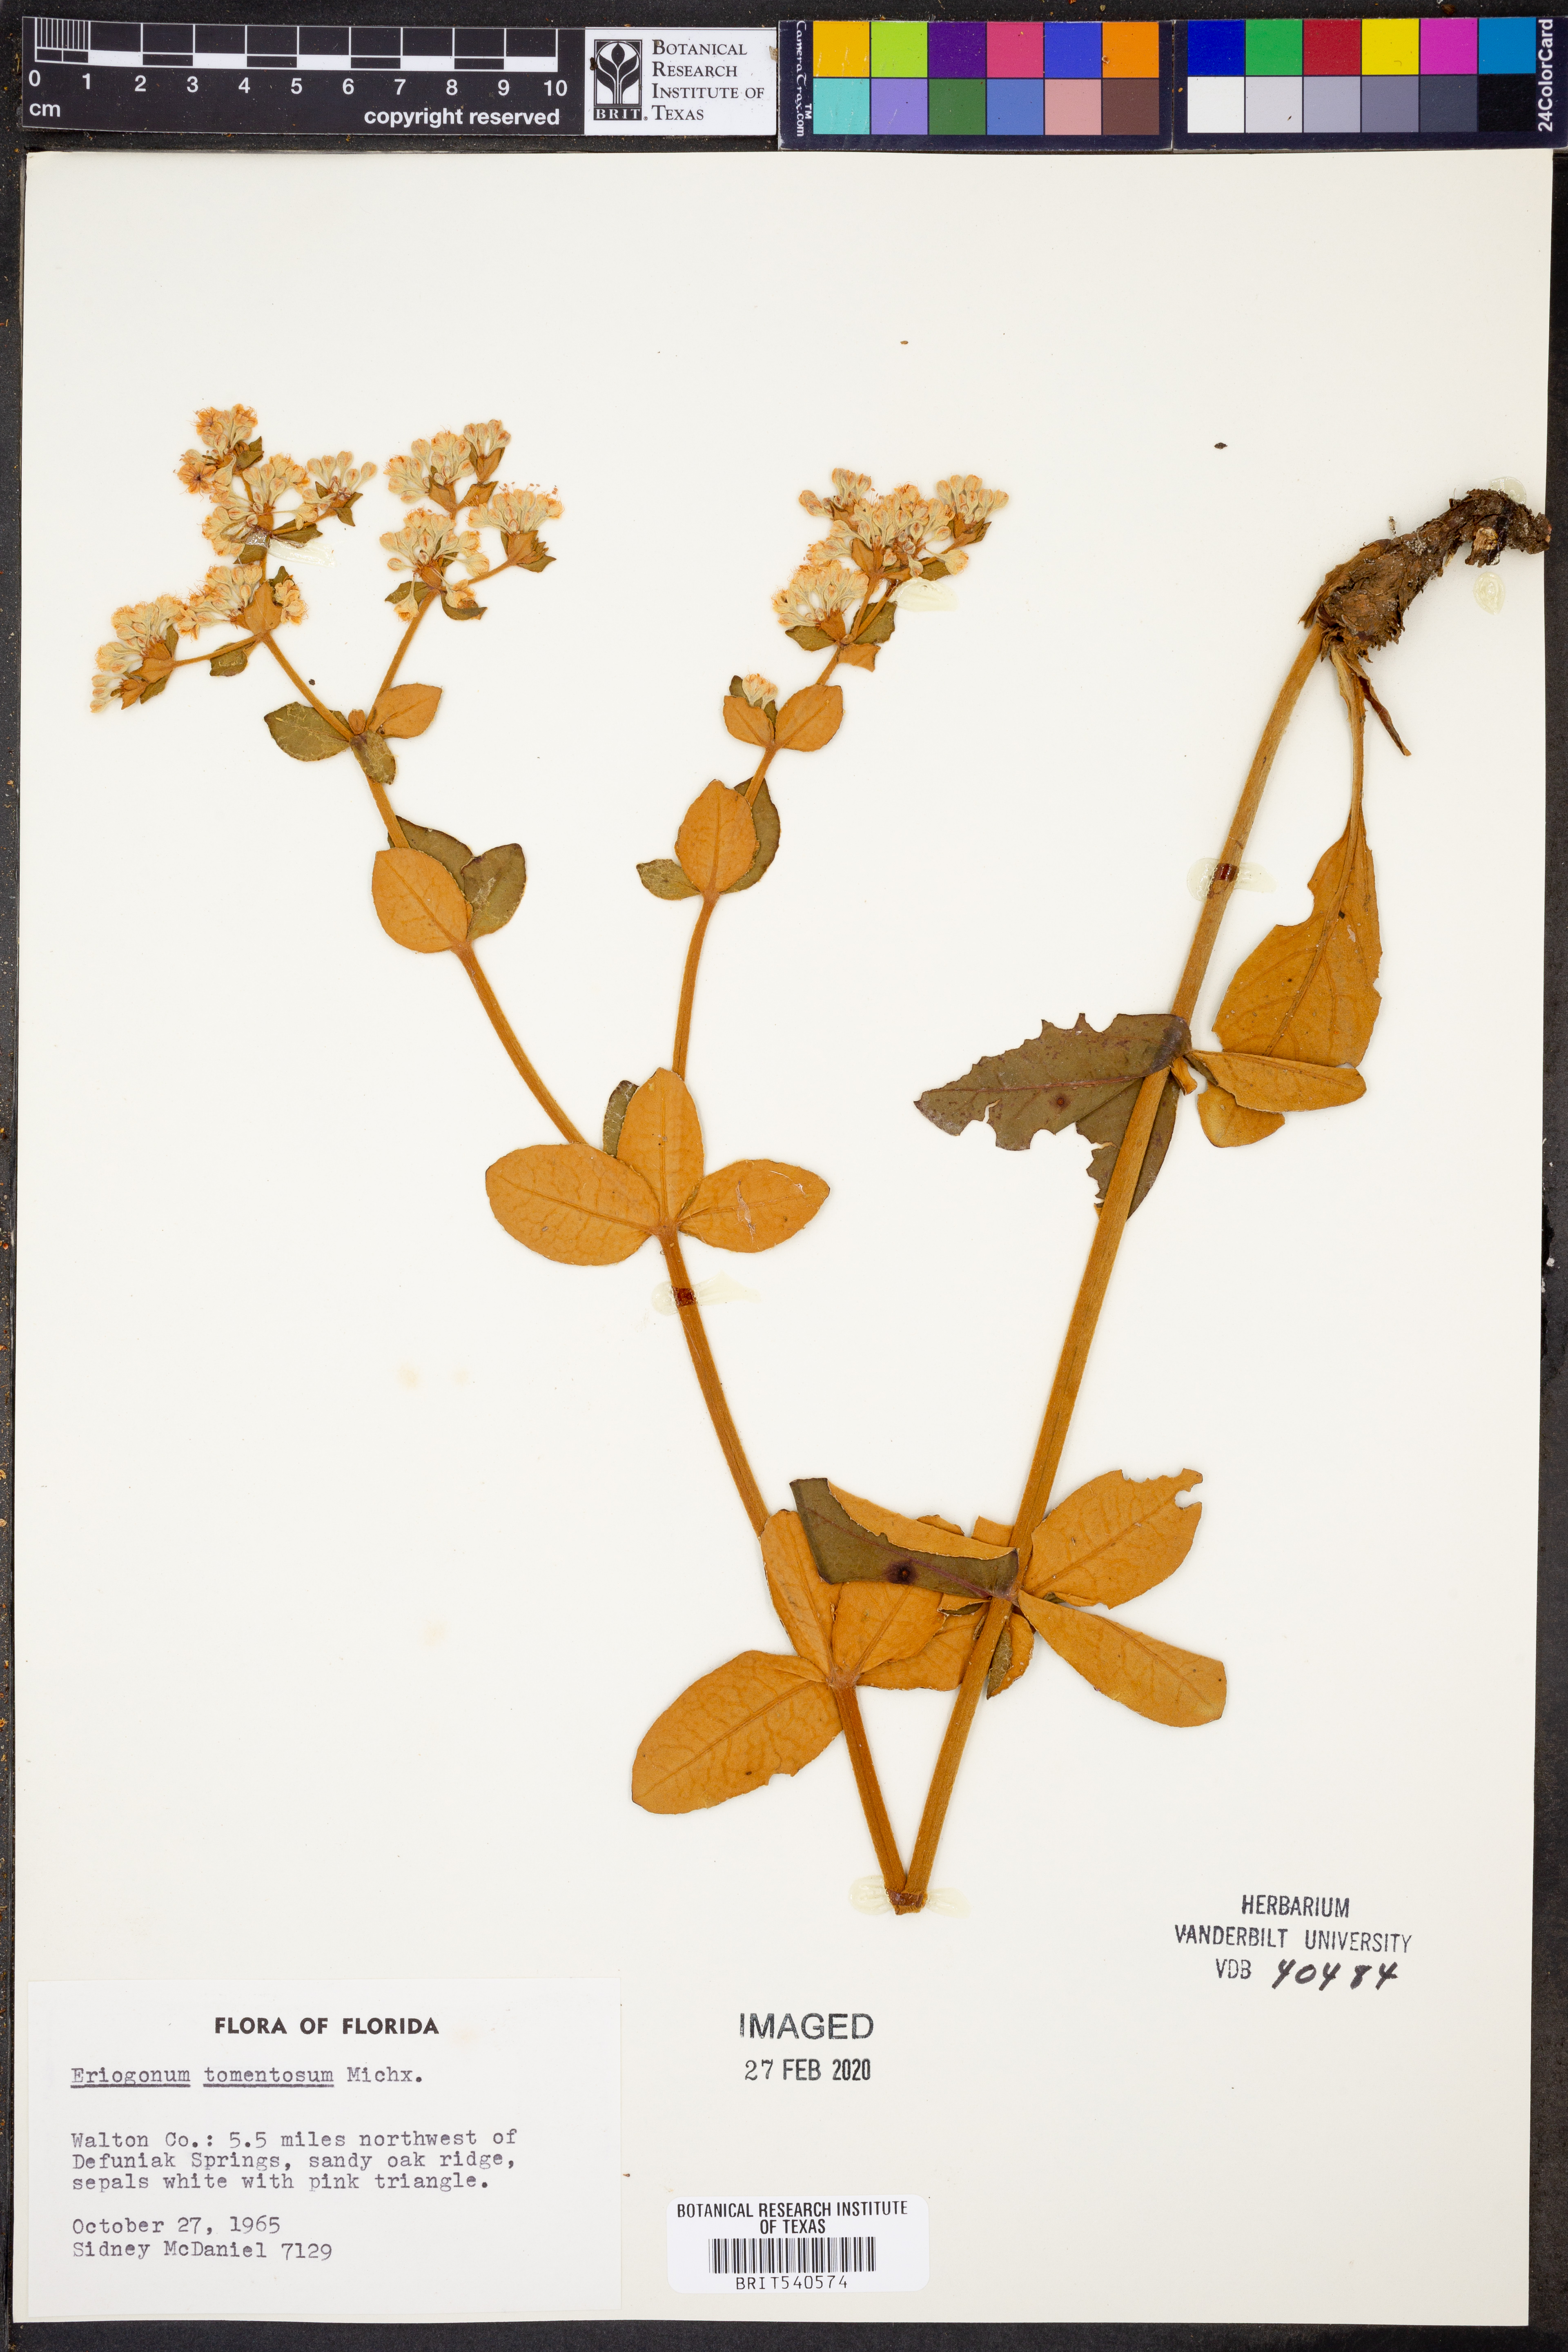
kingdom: Plantae
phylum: Tracheophyta
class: Magnoliopsida
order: Caryophyllales
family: Polygonaceae
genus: Eriogonum
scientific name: Eriogonum tomentosum
